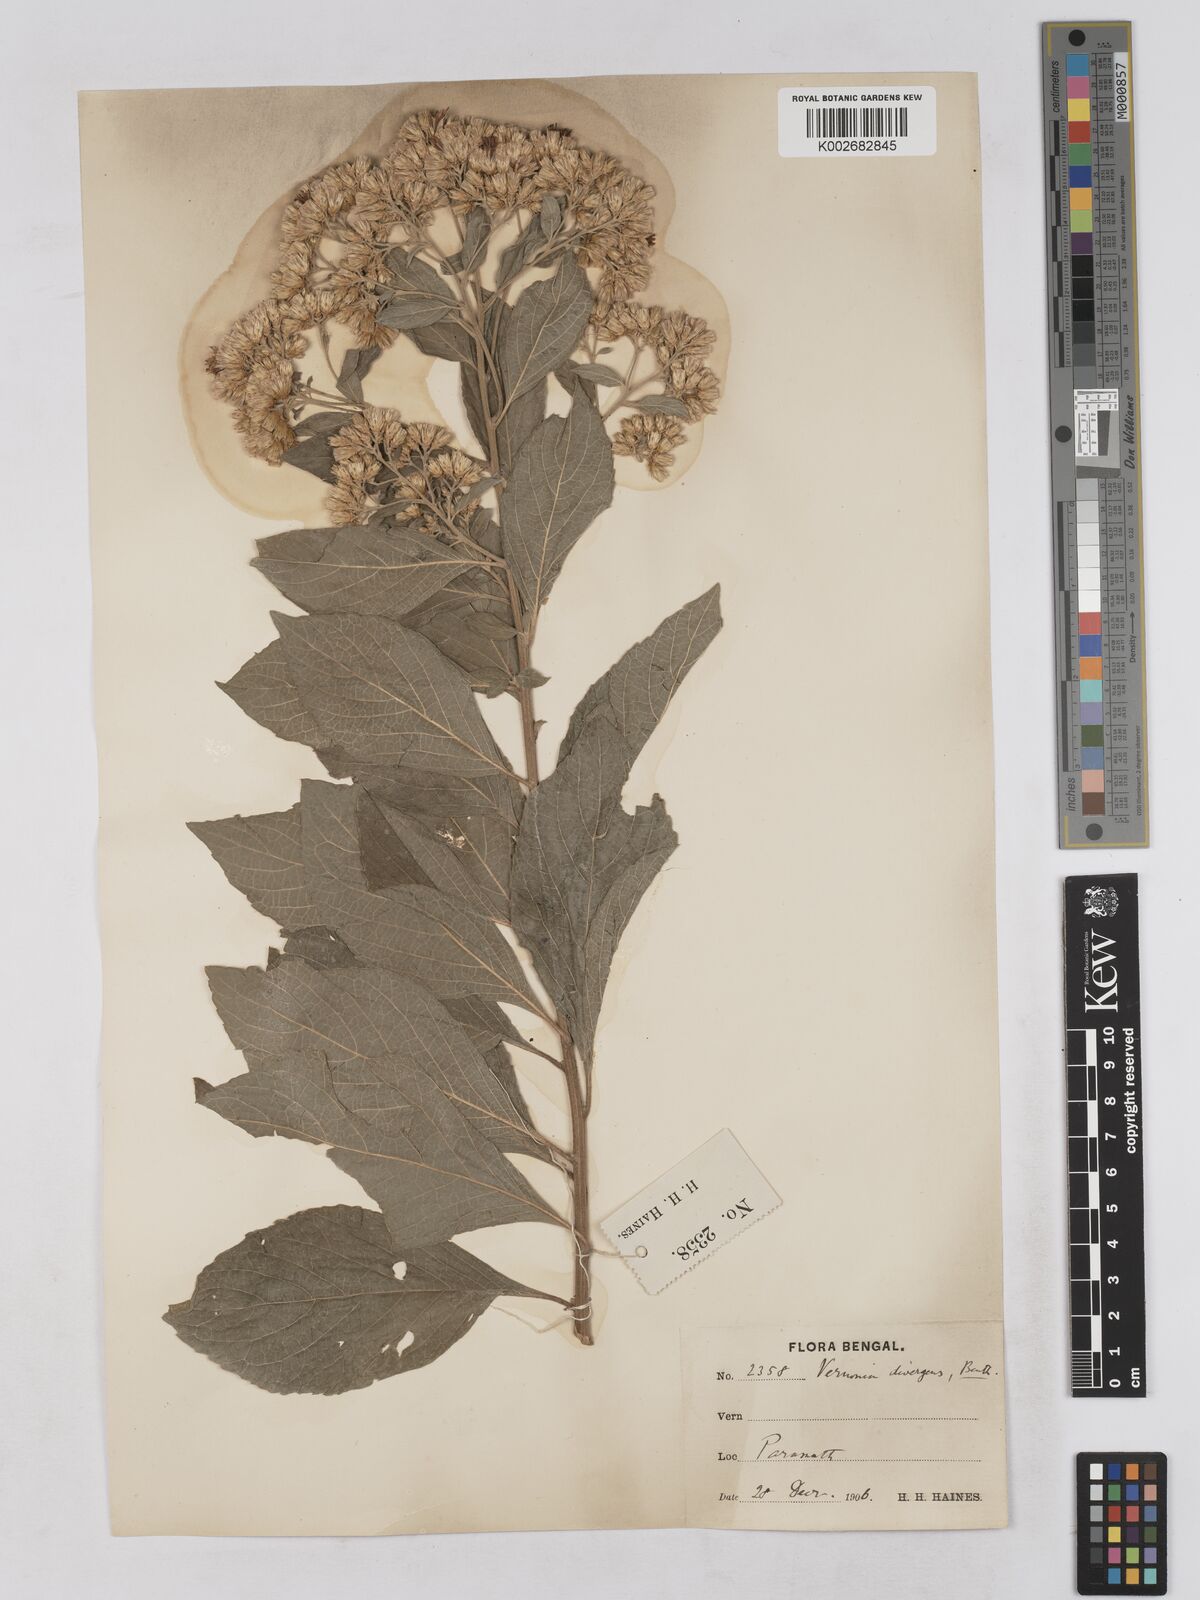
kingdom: Plantae
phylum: Tracheophyta
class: Magnoliopsida
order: Asterales
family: Asteraceae
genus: Acilepis
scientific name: Acilepis divergens
